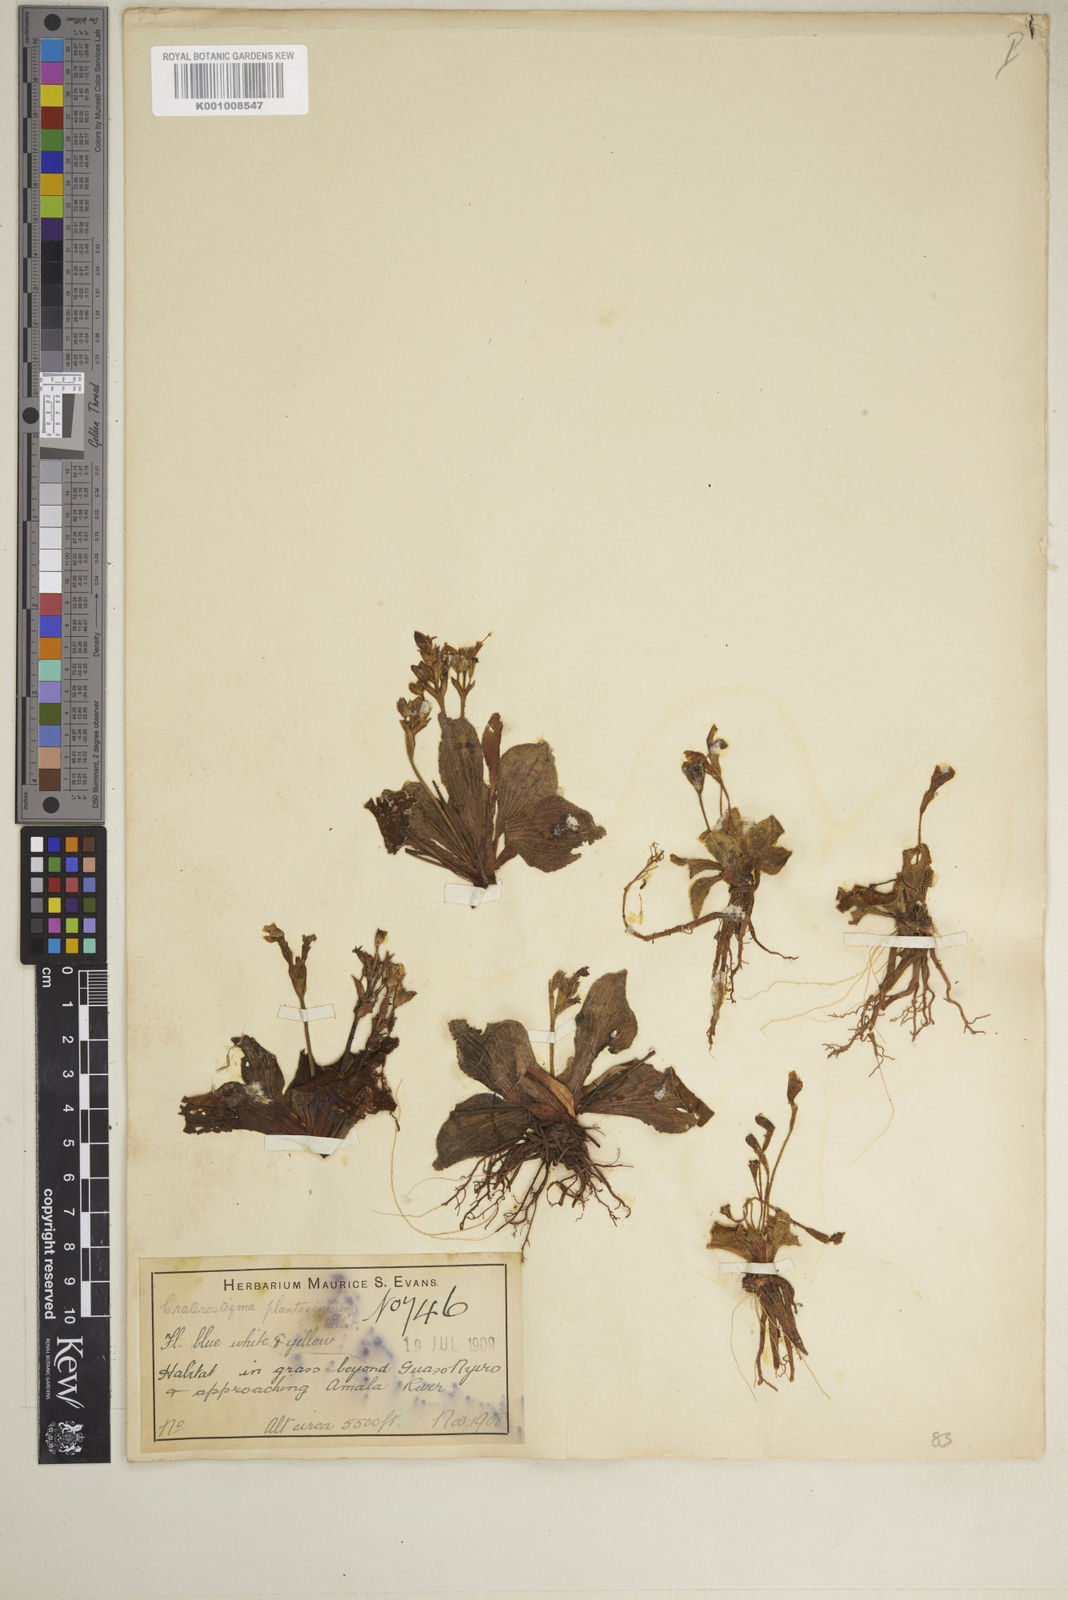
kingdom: Plantae
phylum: Tracheophyta
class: Magnoliopsida
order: Lamiales
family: Linderniaceae
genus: Craterostigma
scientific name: Craterostigma plantagineum
